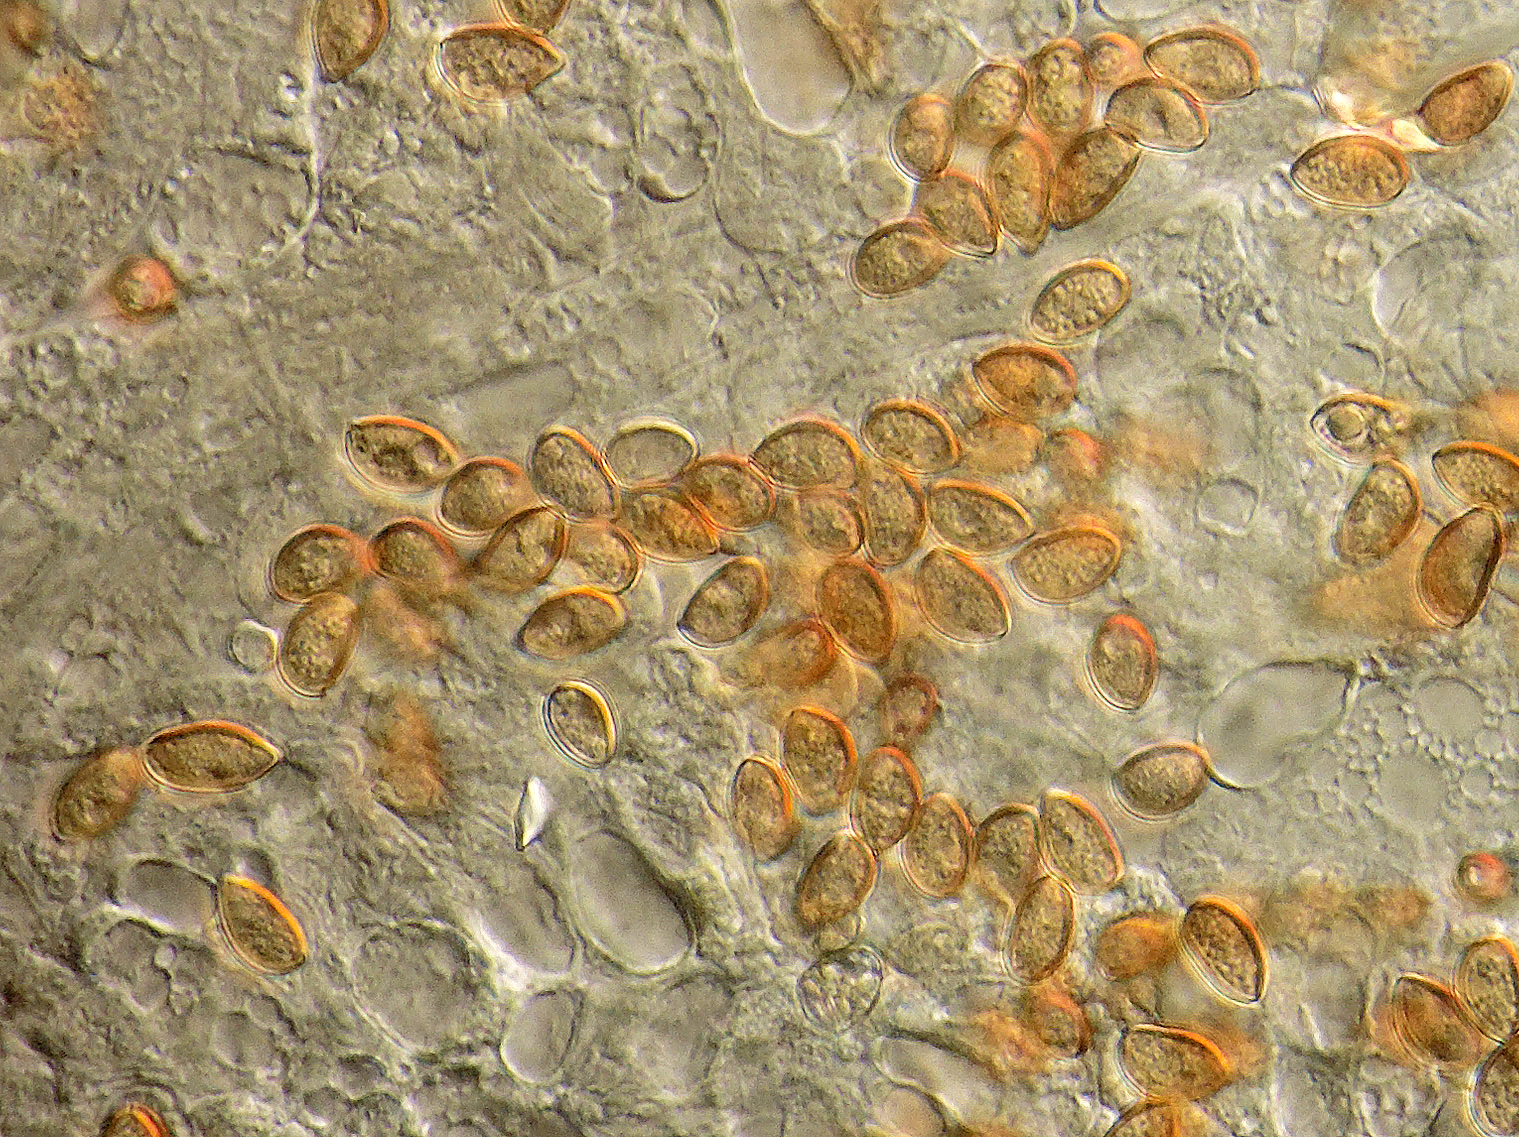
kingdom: Fungi
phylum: Basidiomycota
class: Agaricomycetes
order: Agaricales
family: Inocybaceae
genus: Inocybe
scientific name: Inocybe
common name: trævlhat
